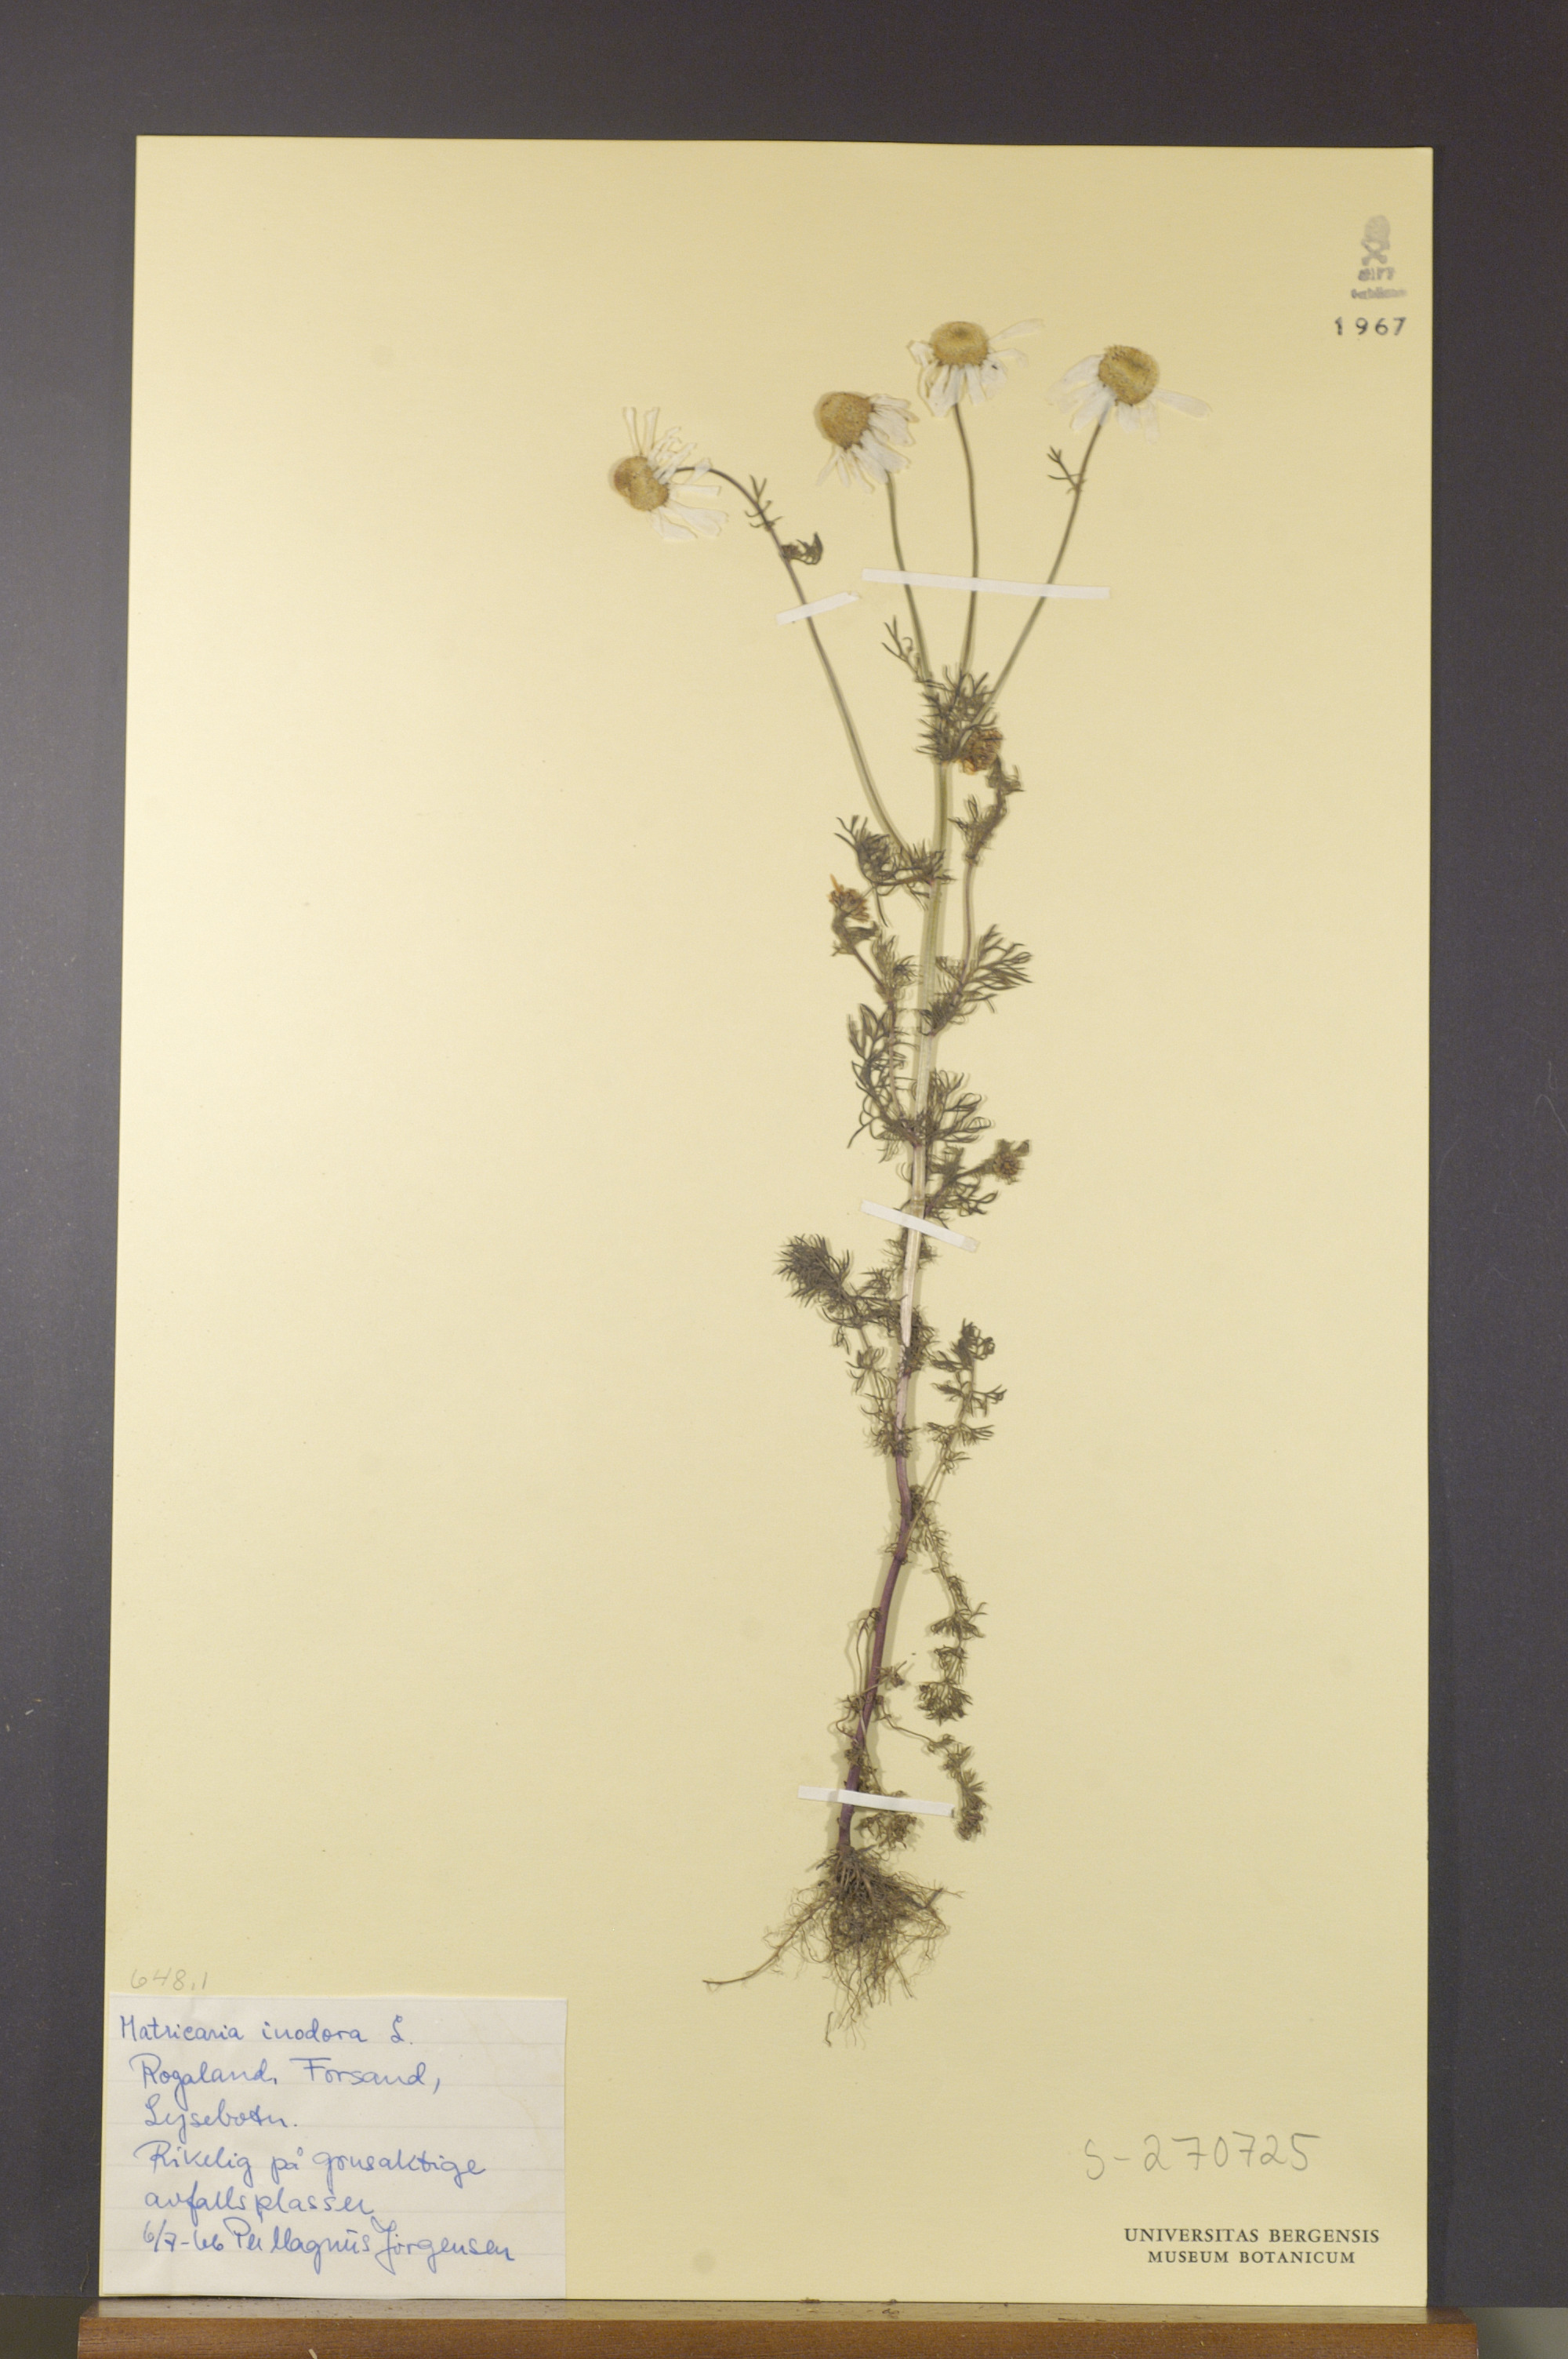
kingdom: Plantae
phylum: Tracheophyta
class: Magnoliopsida
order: Asterales
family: Asteraceae
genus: Tripleurospermum
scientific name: Tripleurospermum inodorum
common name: Scentless mayweed
